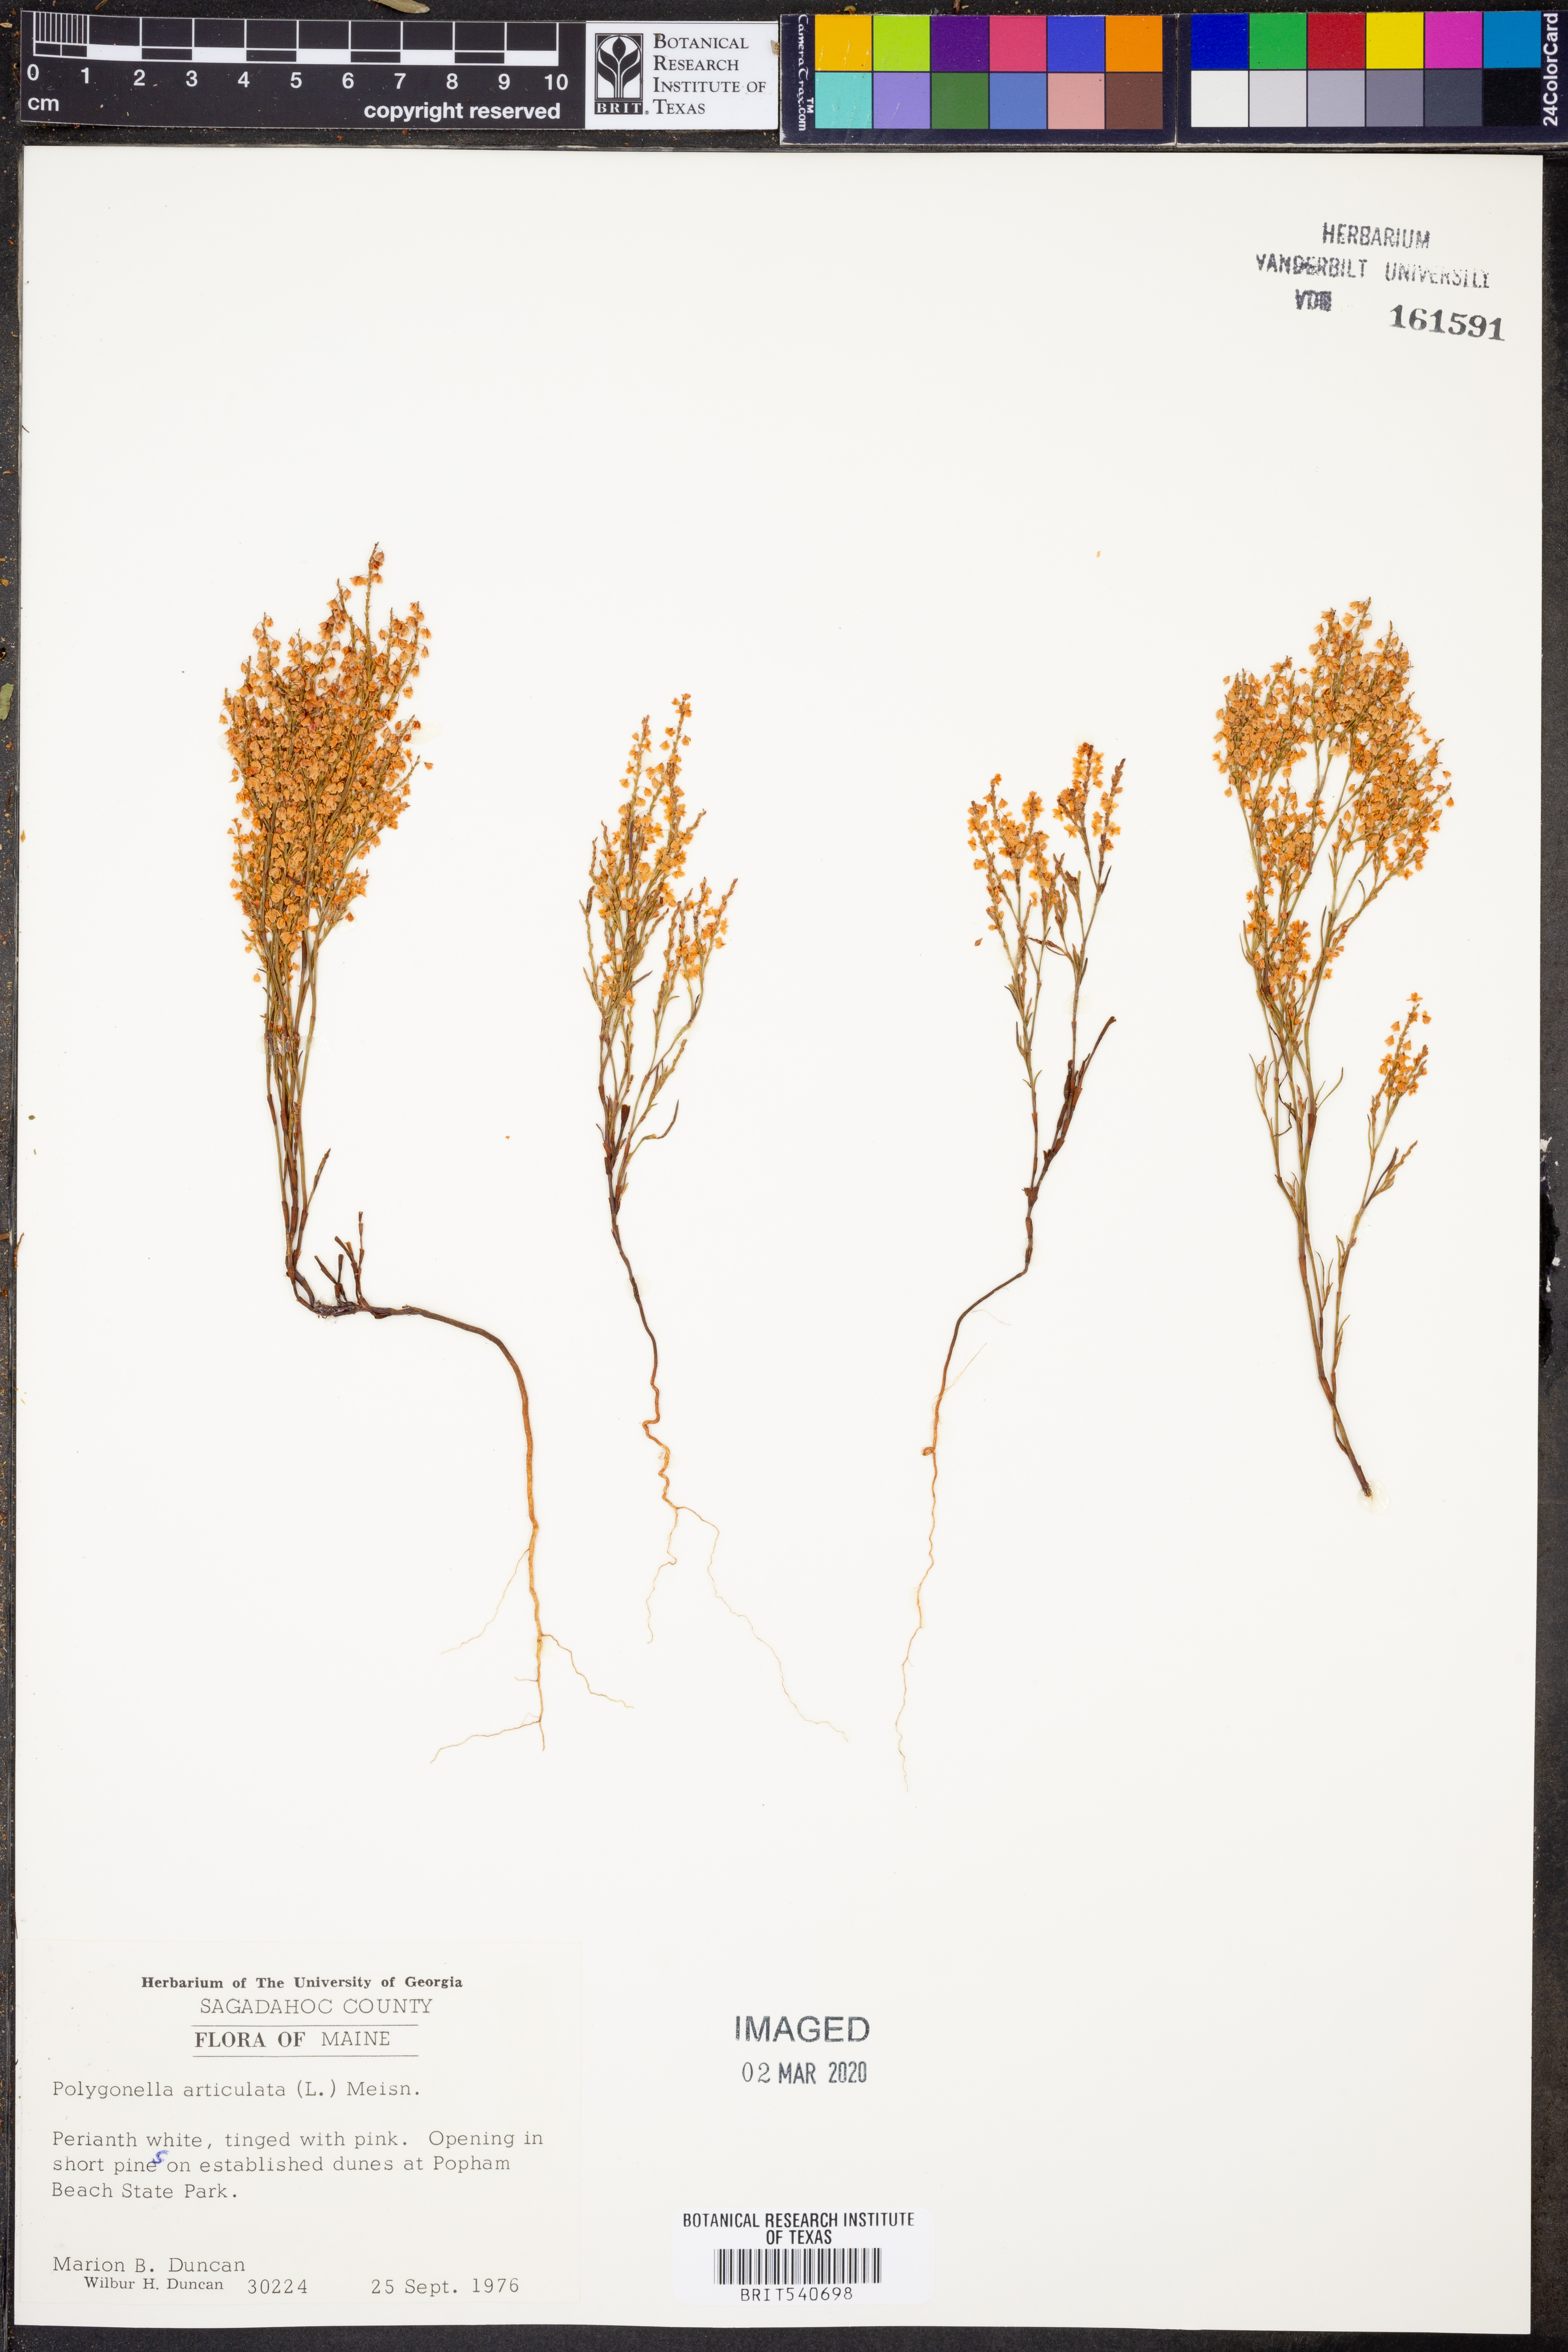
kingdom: Plantae
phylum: Tracheophyta
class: Magnoliopsida
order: Caryophyllales
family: Polygonaceae
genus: Polygonella
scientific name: Polygonella articulata
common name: Coastal jointweed
